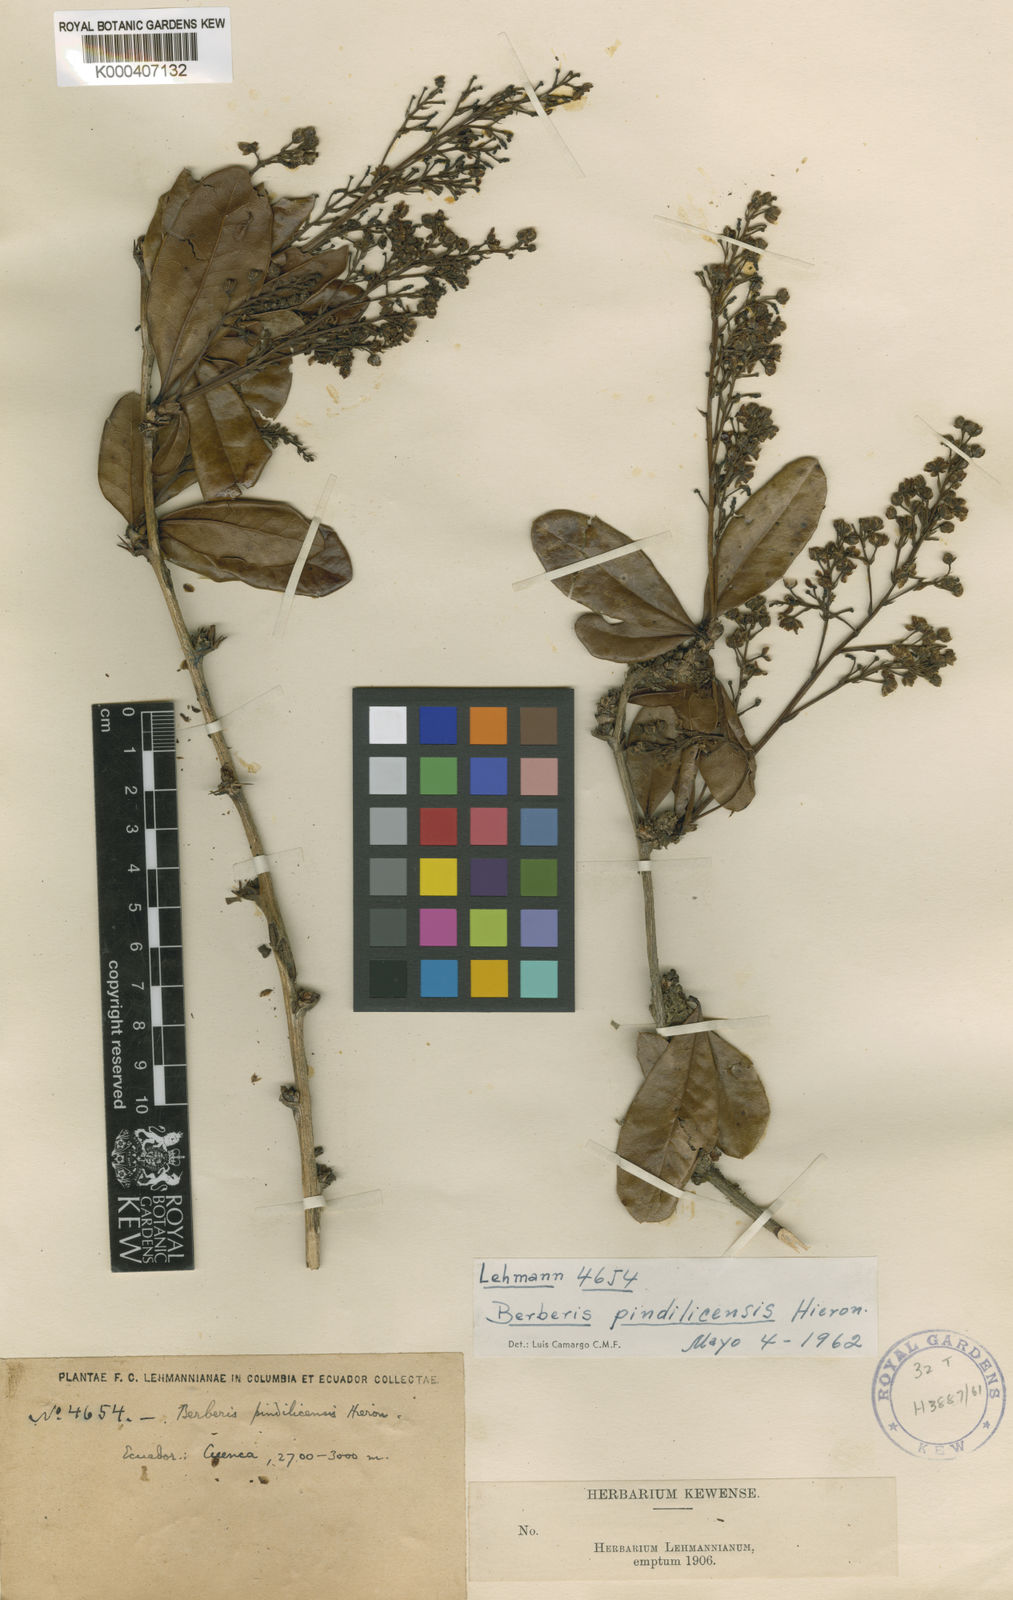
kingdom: Plantae
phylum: Tracheophyta
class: Magnoliopsida
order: Ranunculales
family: Berberidaceae
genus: Berberis
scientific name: Berberis pindilicensis
